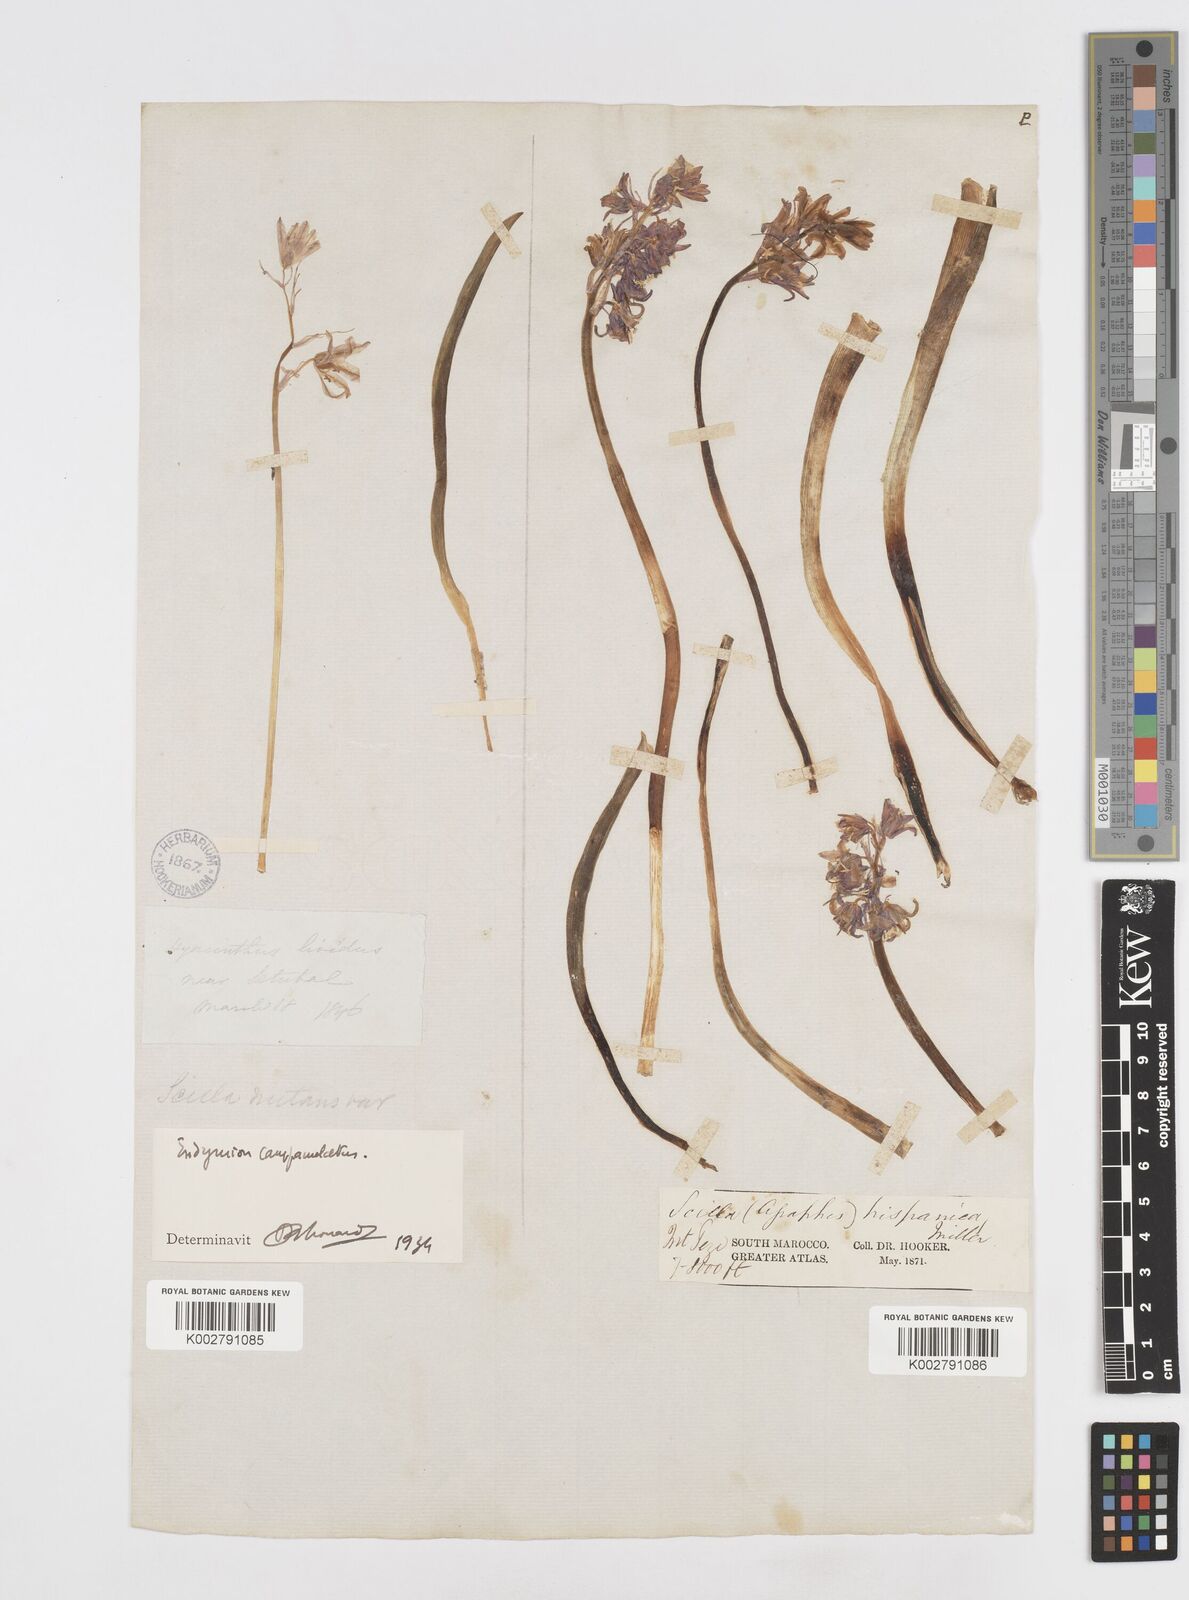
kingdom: Plantae
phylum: Tracheophyta
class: Liliopsida
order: Asparagales
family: Asparagaceae
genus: Hyacinthoides
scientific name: Hyacinthoides hispanica
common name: Spanish bluebell
